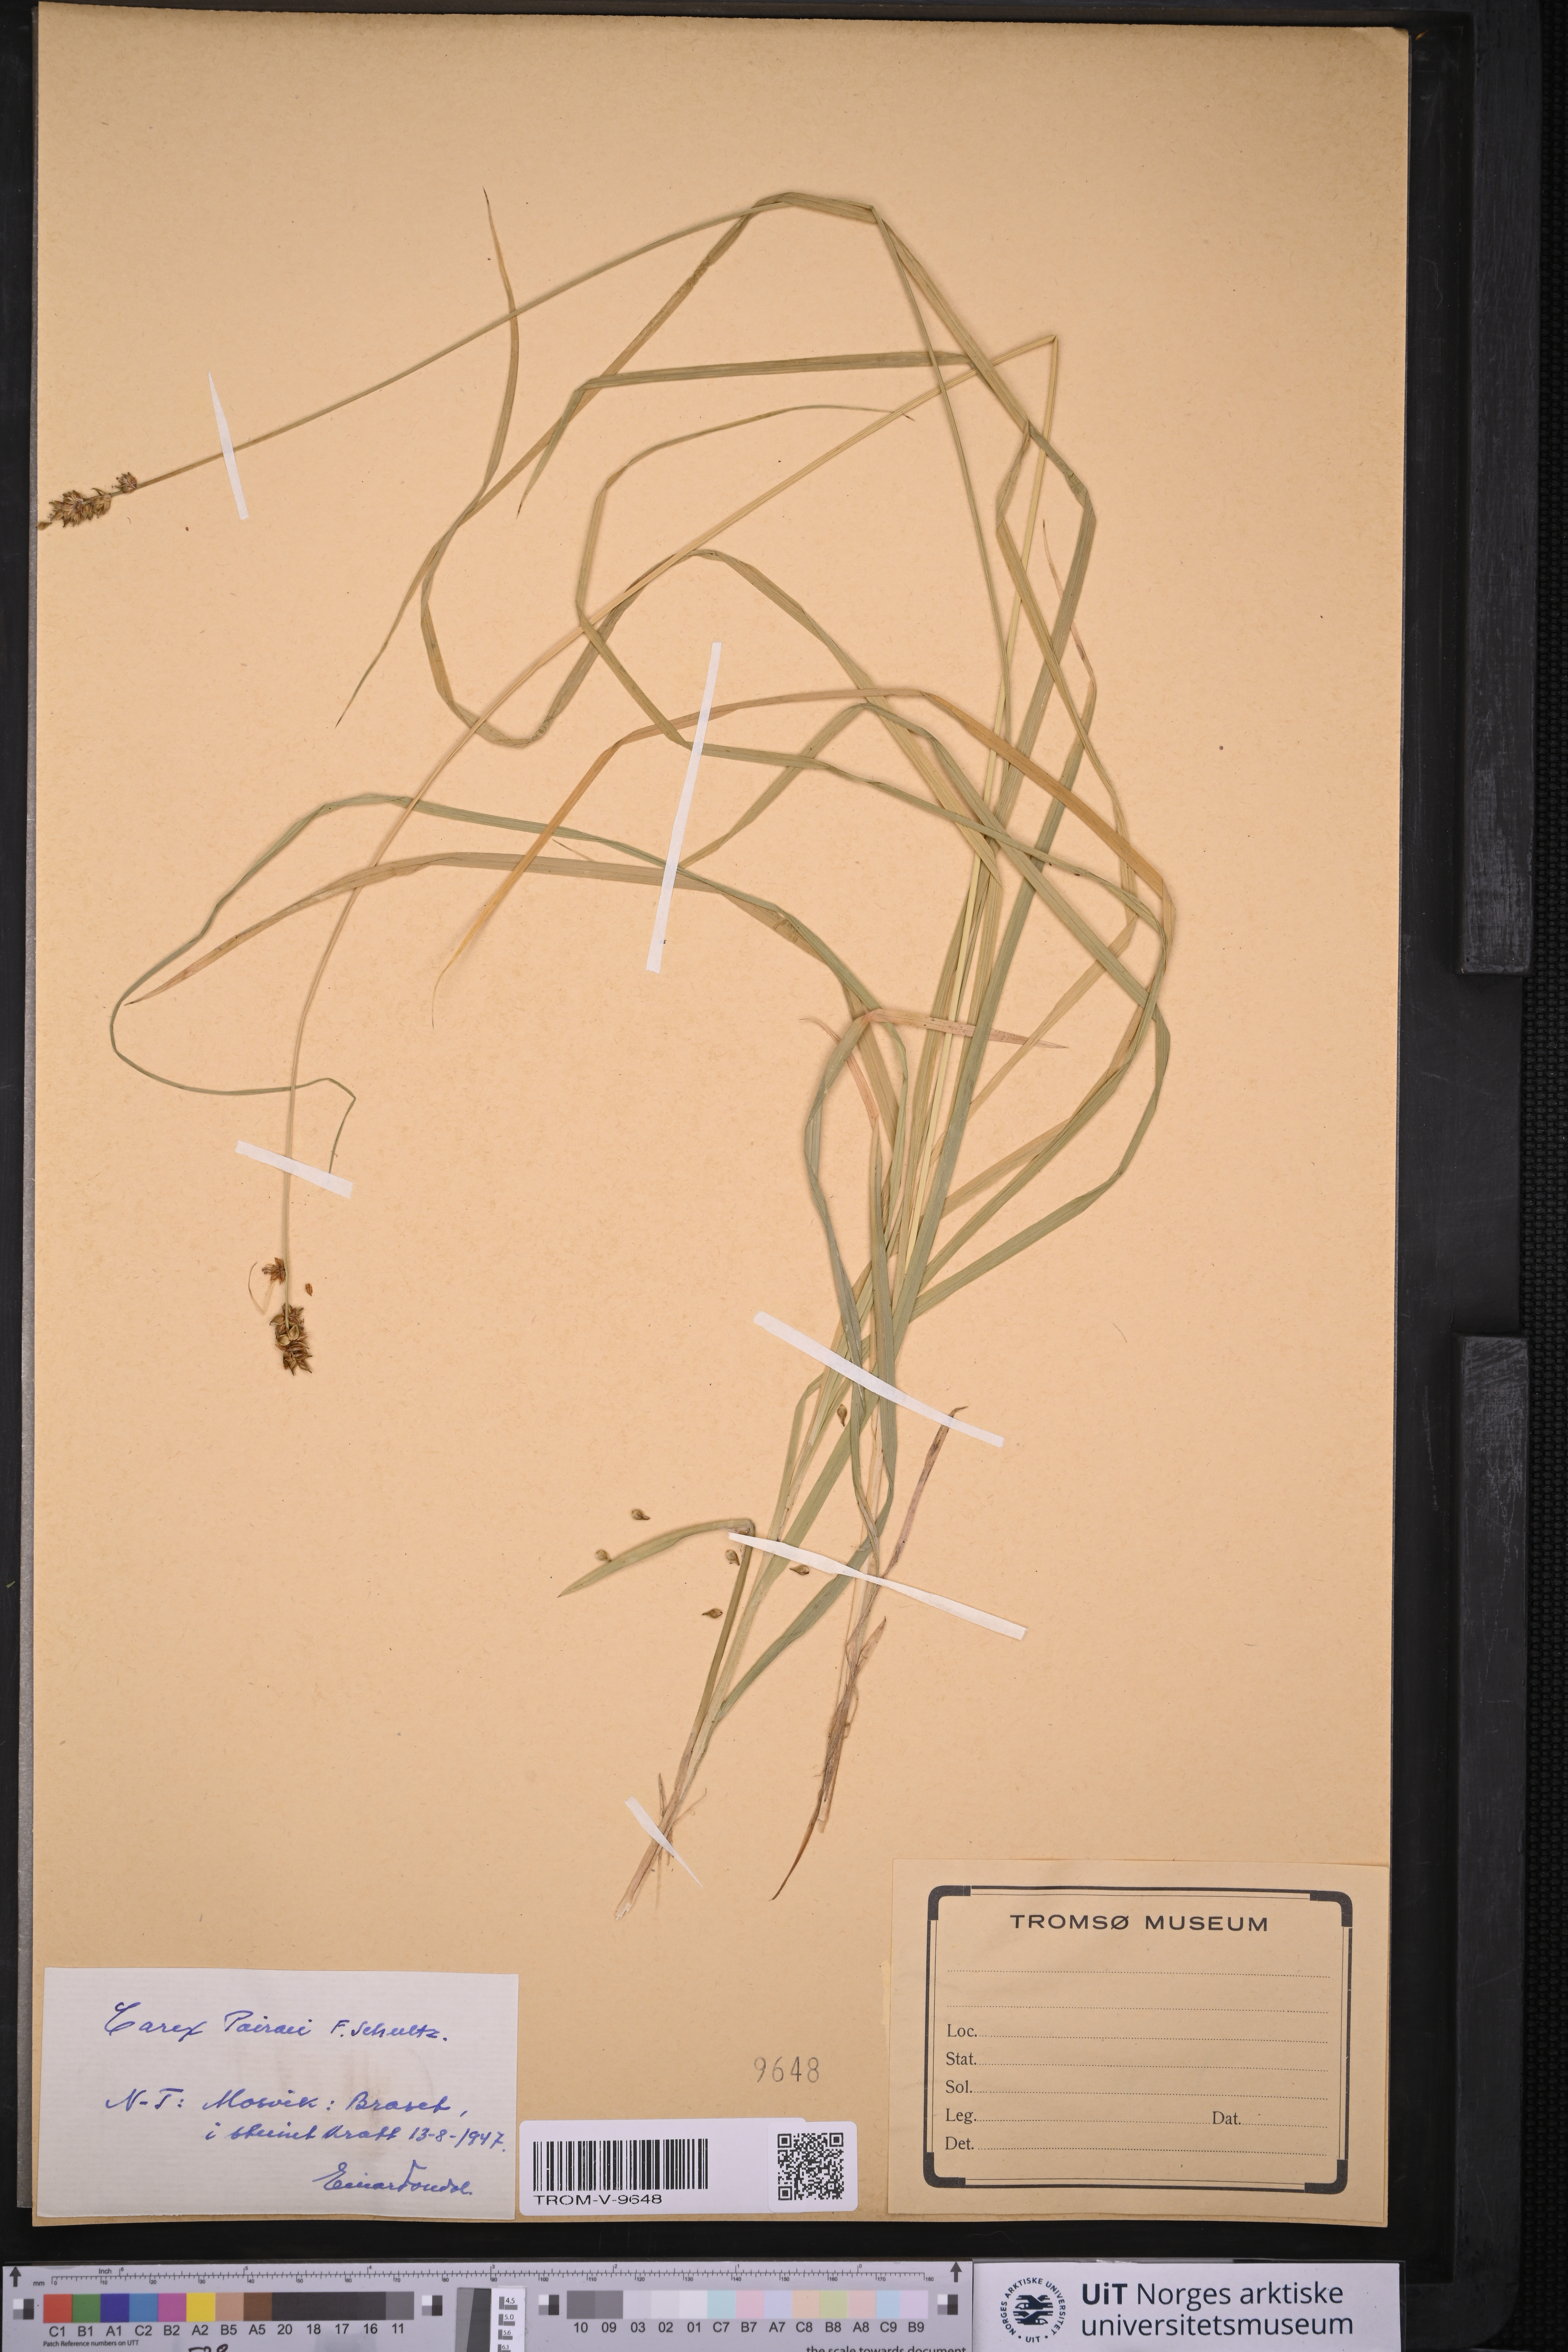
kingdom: Plantae
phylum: Tracheophyta
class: Liliopsida
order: Poales
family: Cyperaceae
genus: Carex
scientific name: Carex pairae
